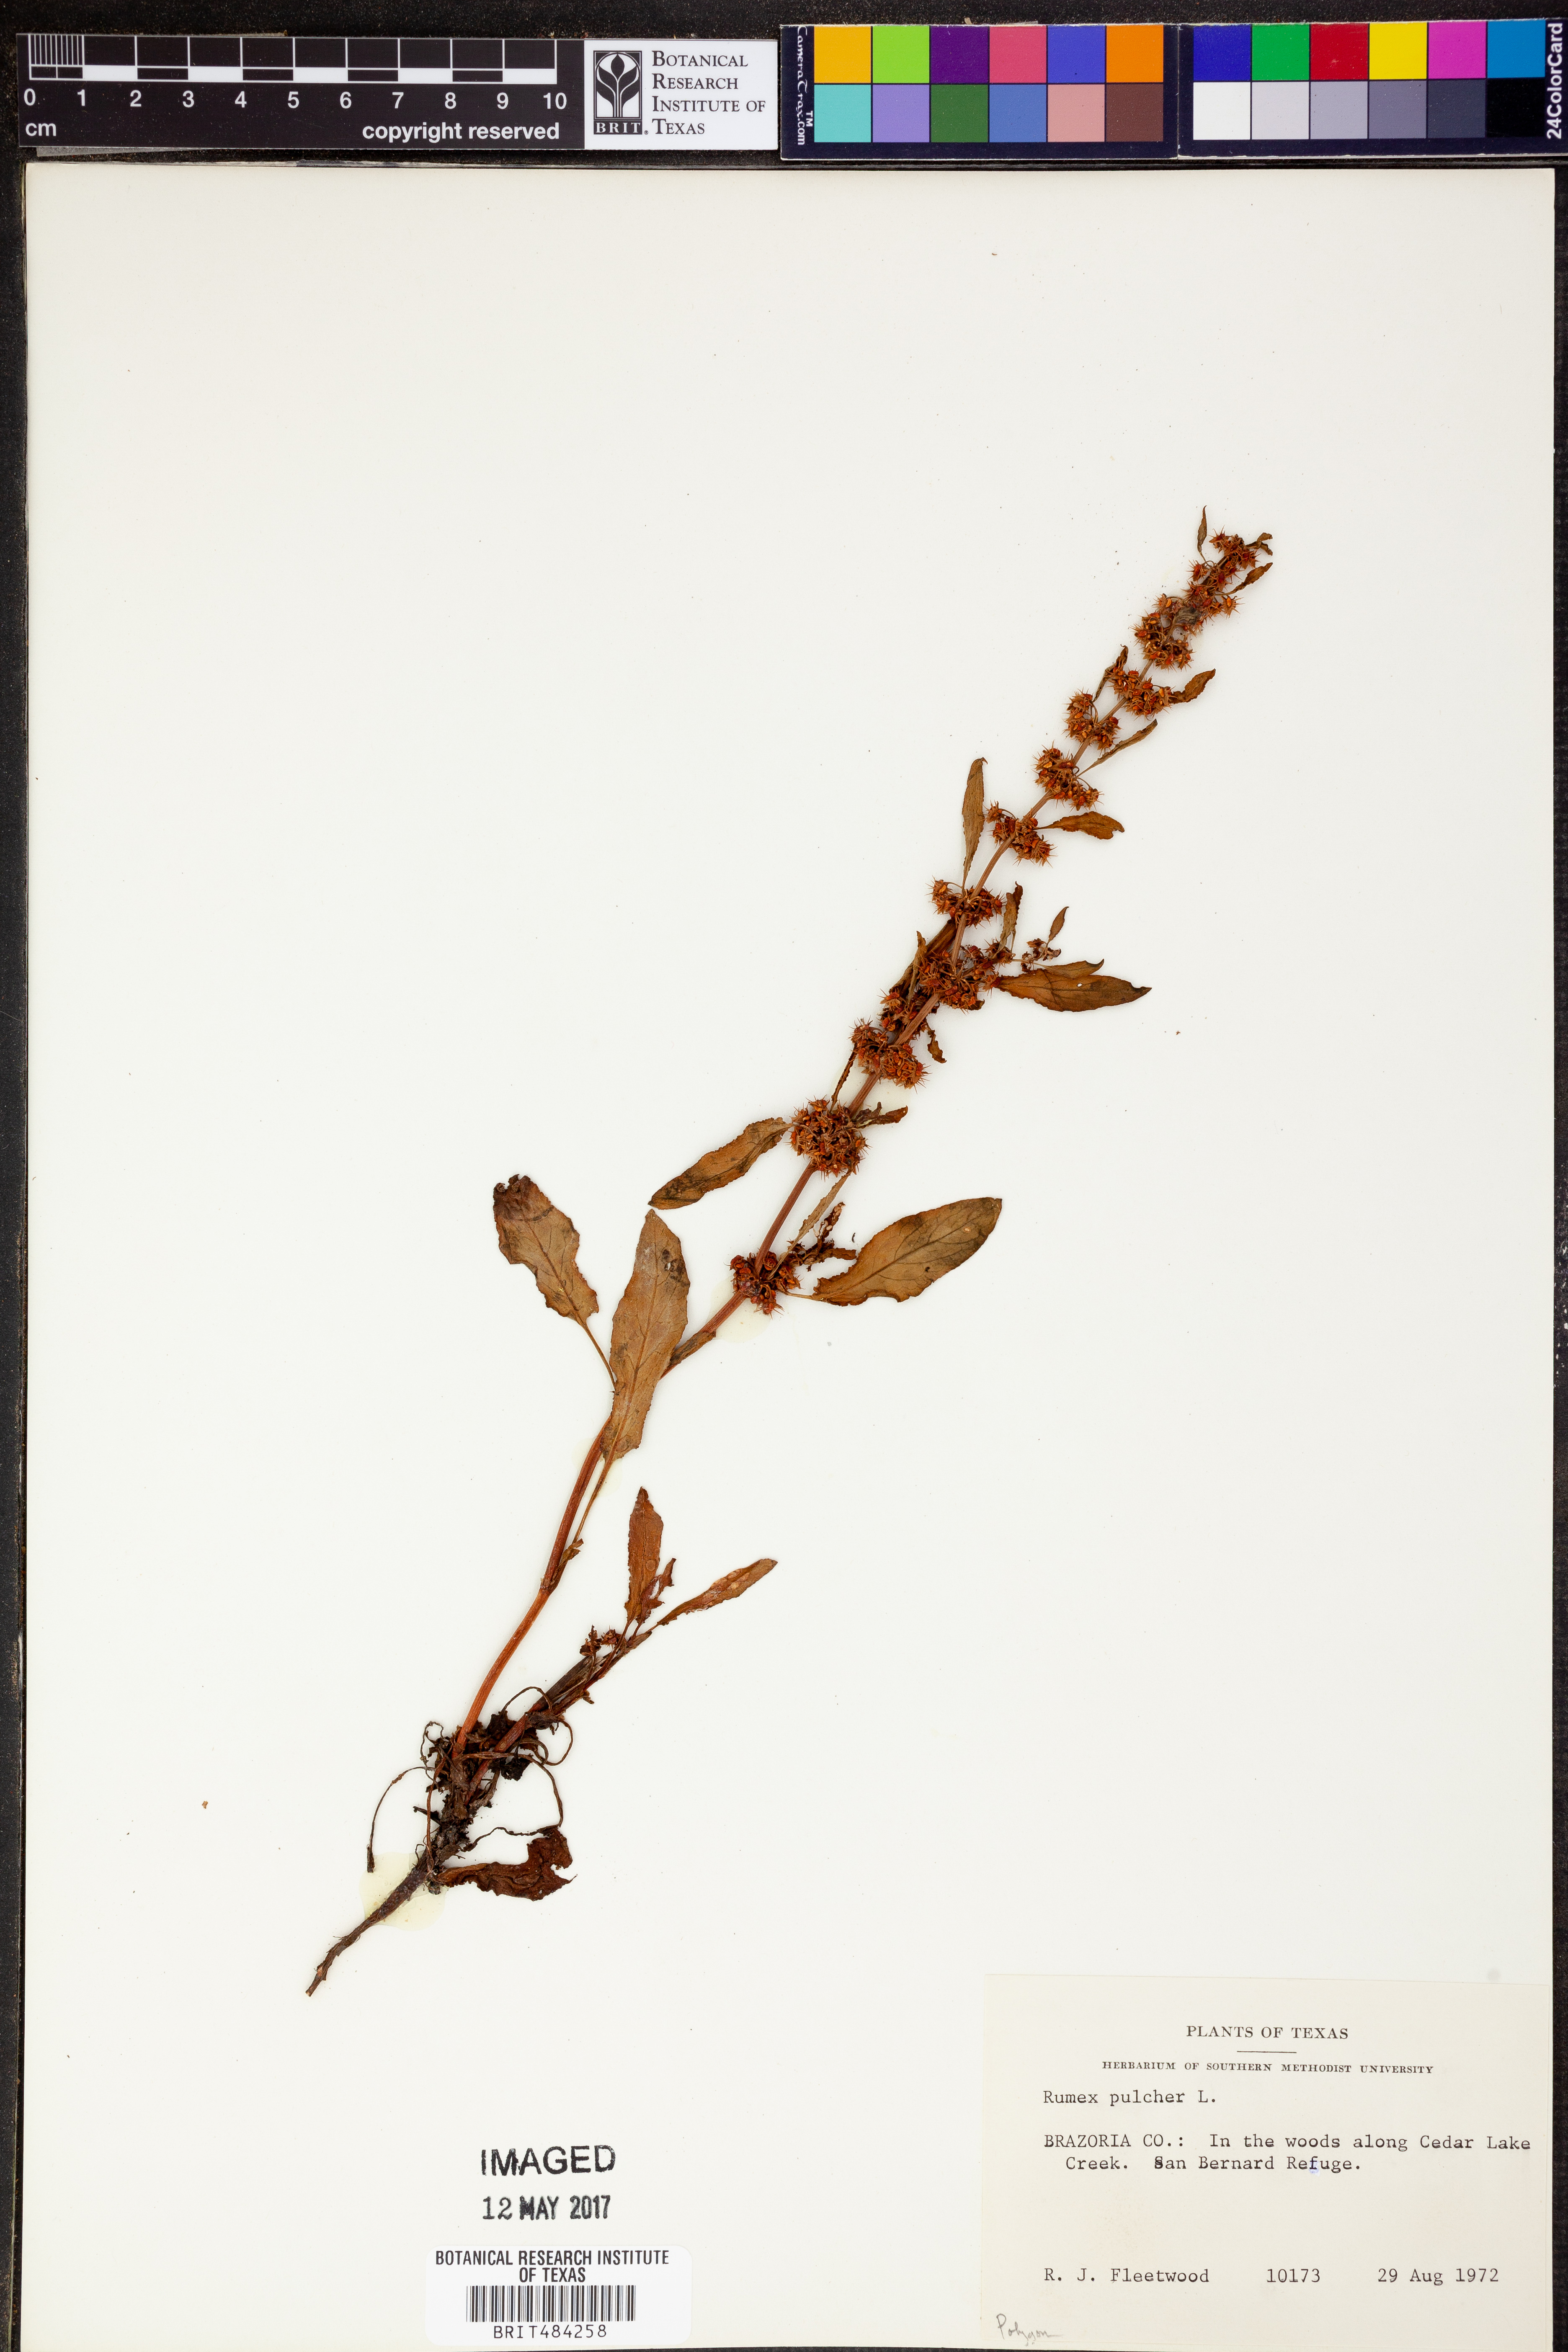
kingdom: Plantae
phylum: Tracheophyta
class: Magnoliopsida
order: Caryophyllales
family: Polygonaceae
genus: Rumex
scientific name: Rumex pulcher
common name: Fiddle dock
